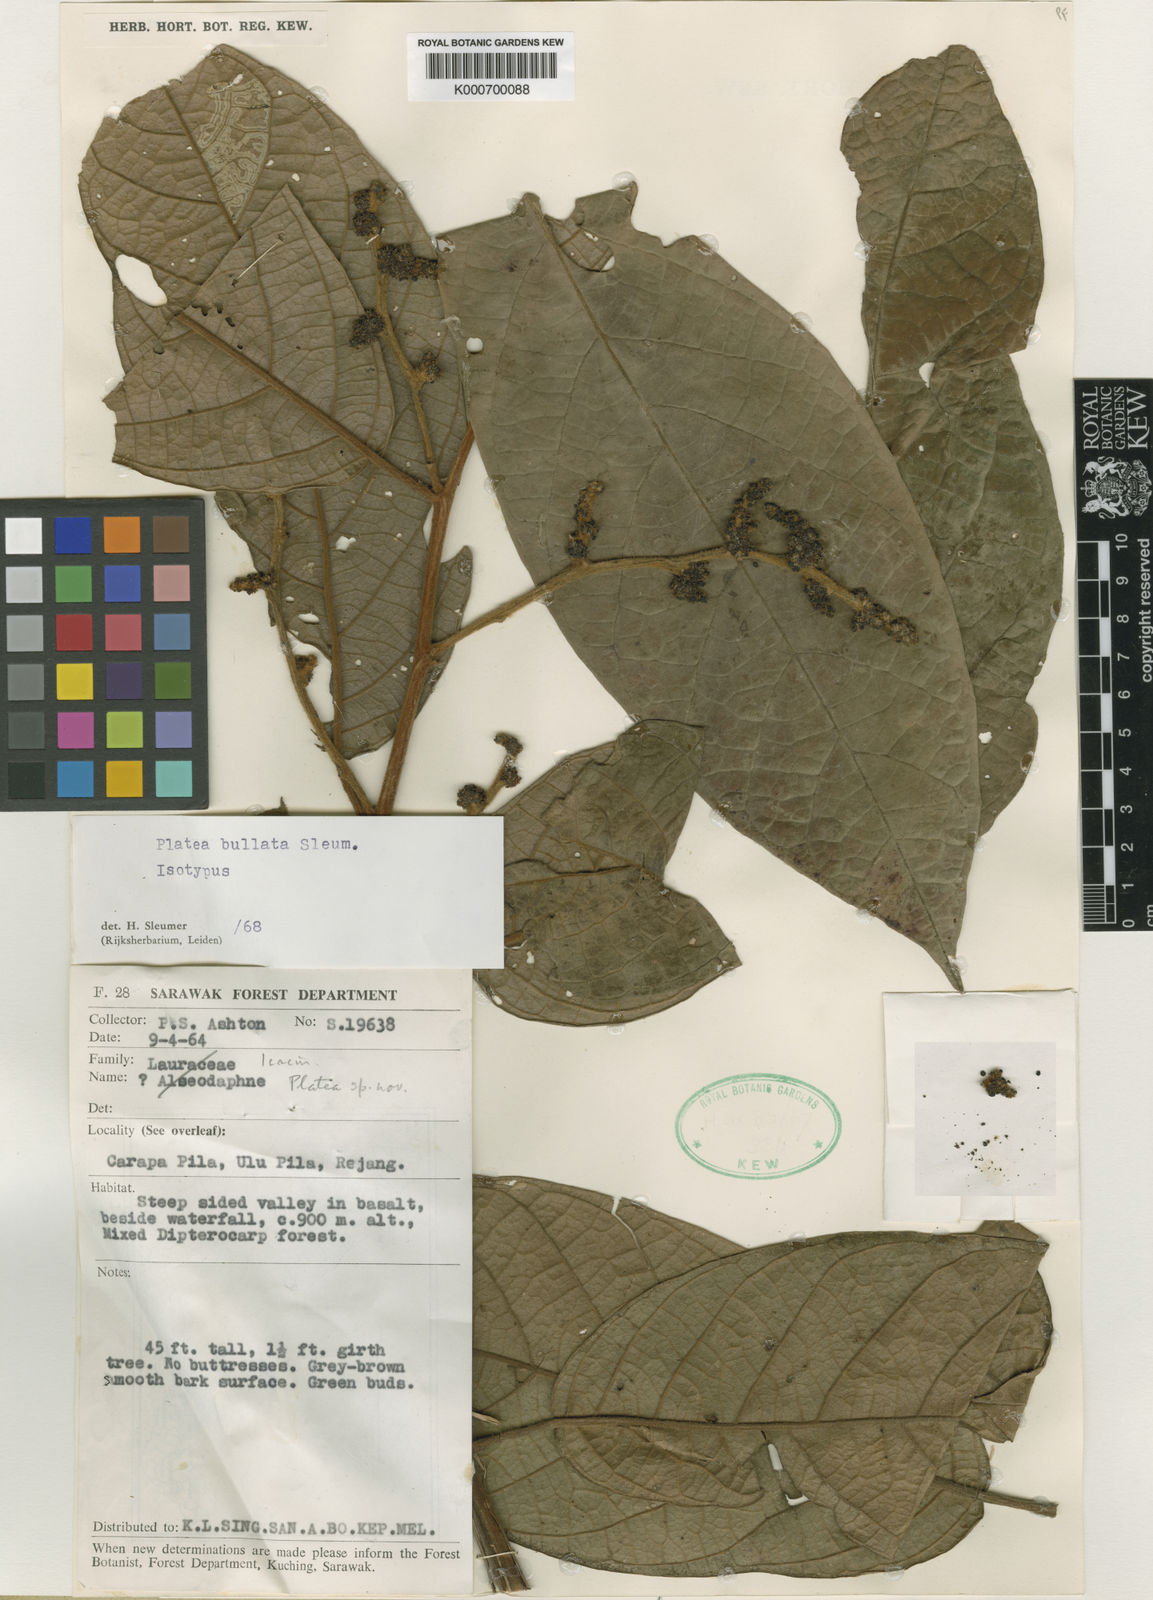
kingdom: Plantae
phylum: Tracheophyta
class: Magnoliopsida
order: Metteniusales
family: Metteniusaceae
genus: Platea
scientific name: Platea bullata
